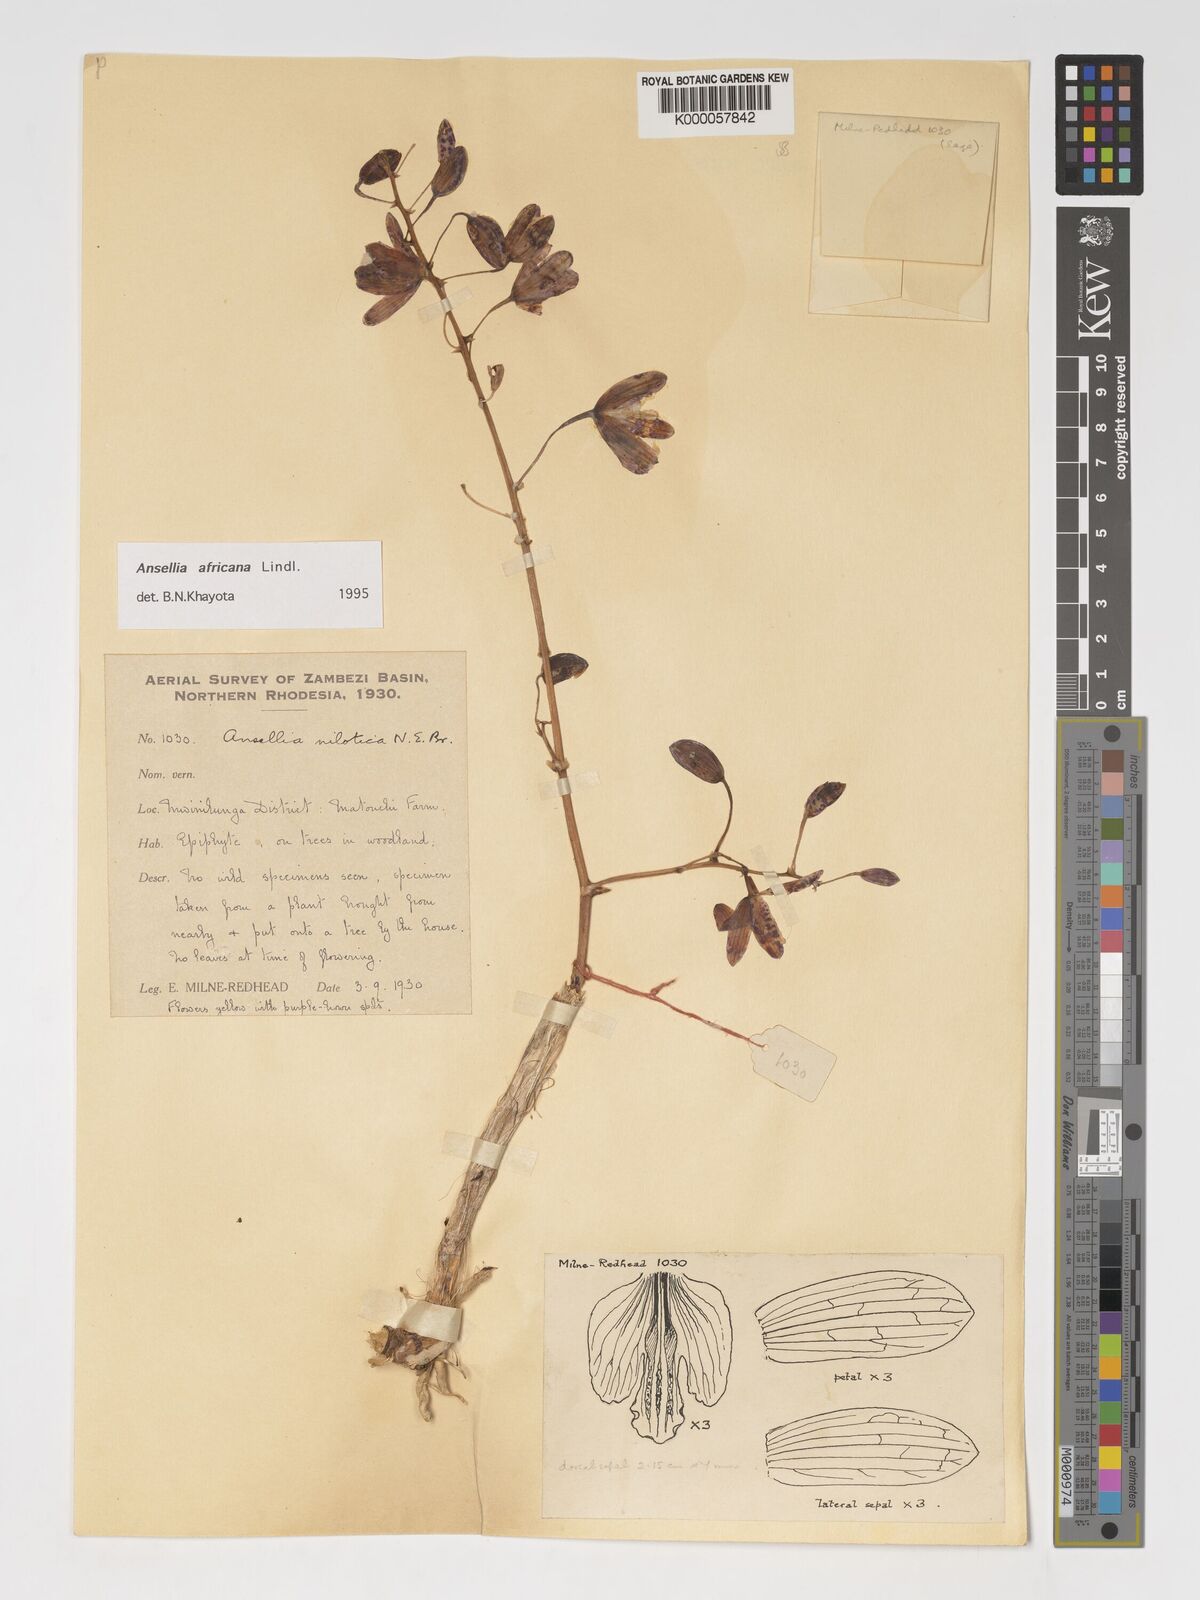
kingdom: Plantae
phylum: Tracheophyta
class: Liliopsida
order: Asparagales
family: Orchidaceae
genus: Ansellia
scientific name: Ansellia africana
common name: African ansellia
